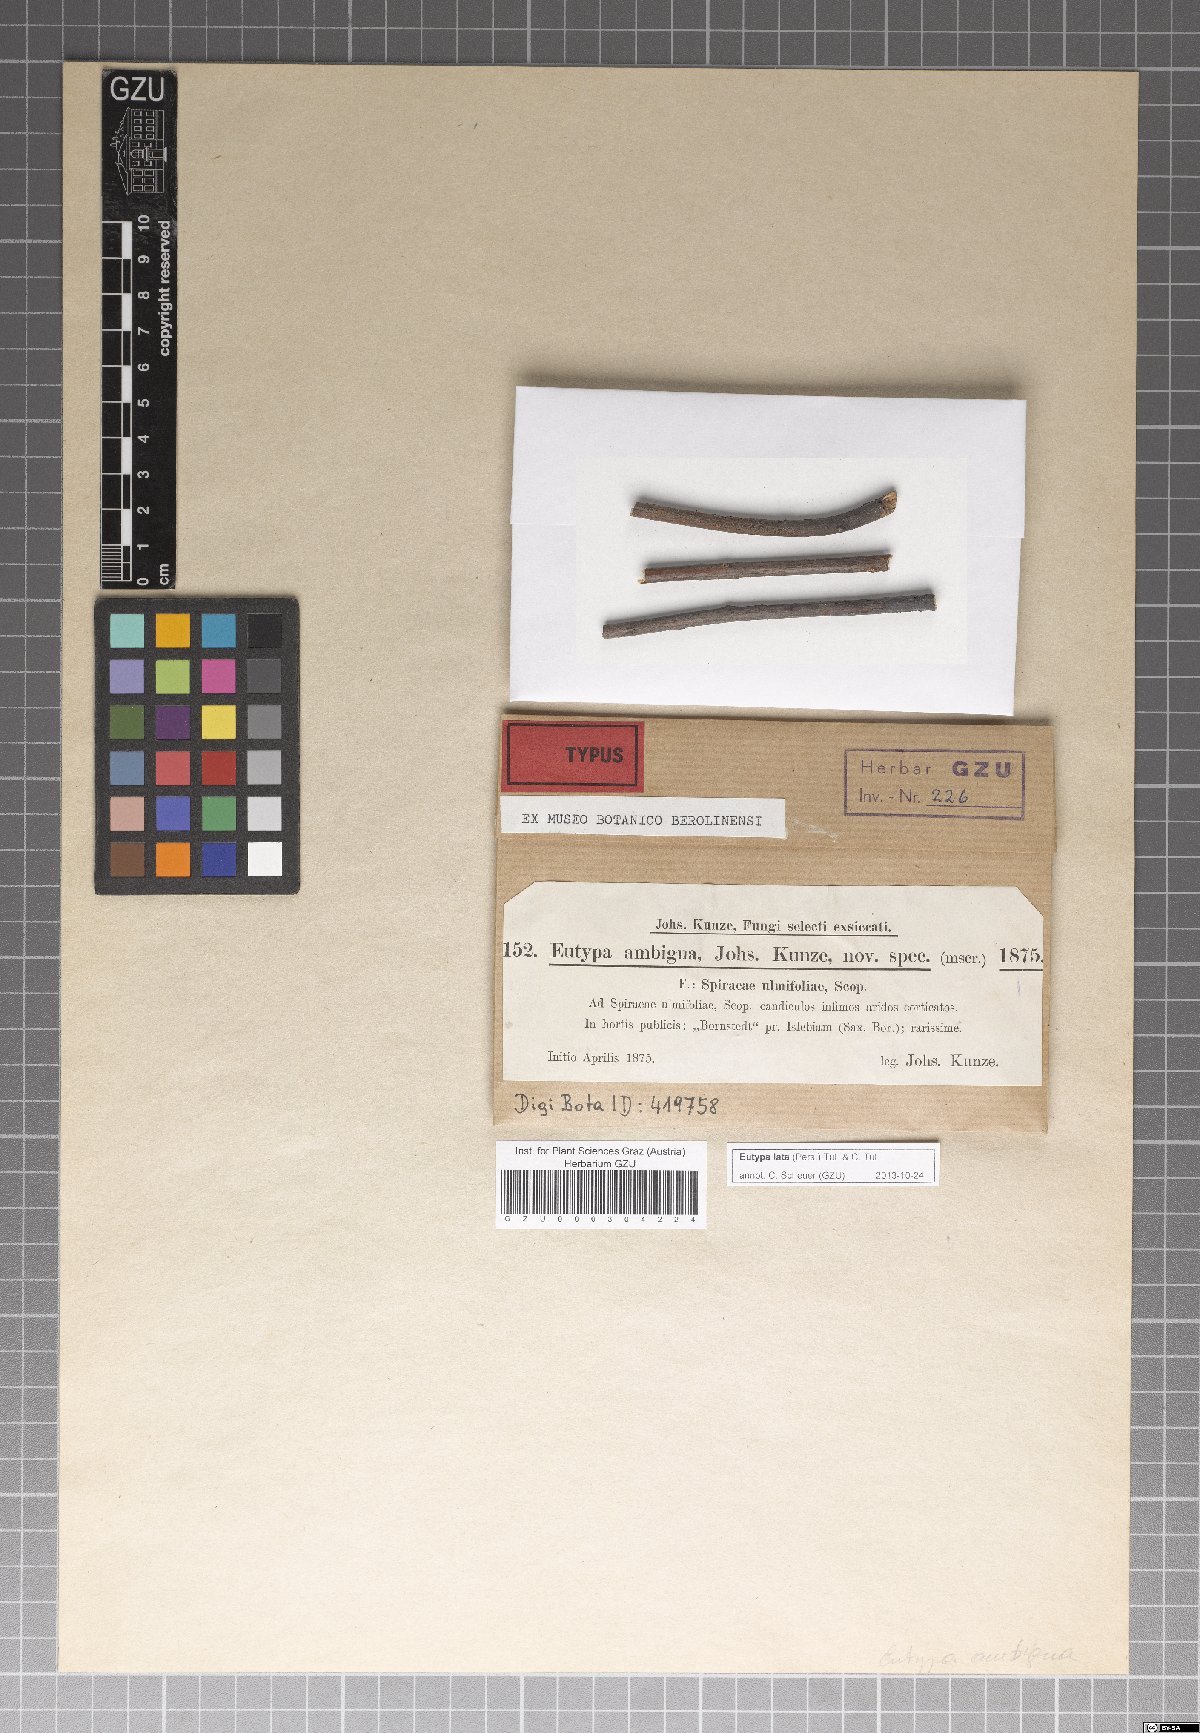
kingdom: Fungi
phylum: Ascomycota
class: Sordariomycetes
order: Xylariales
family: Diatrypaceae
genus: Eutypa
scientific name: Eutypa lata
